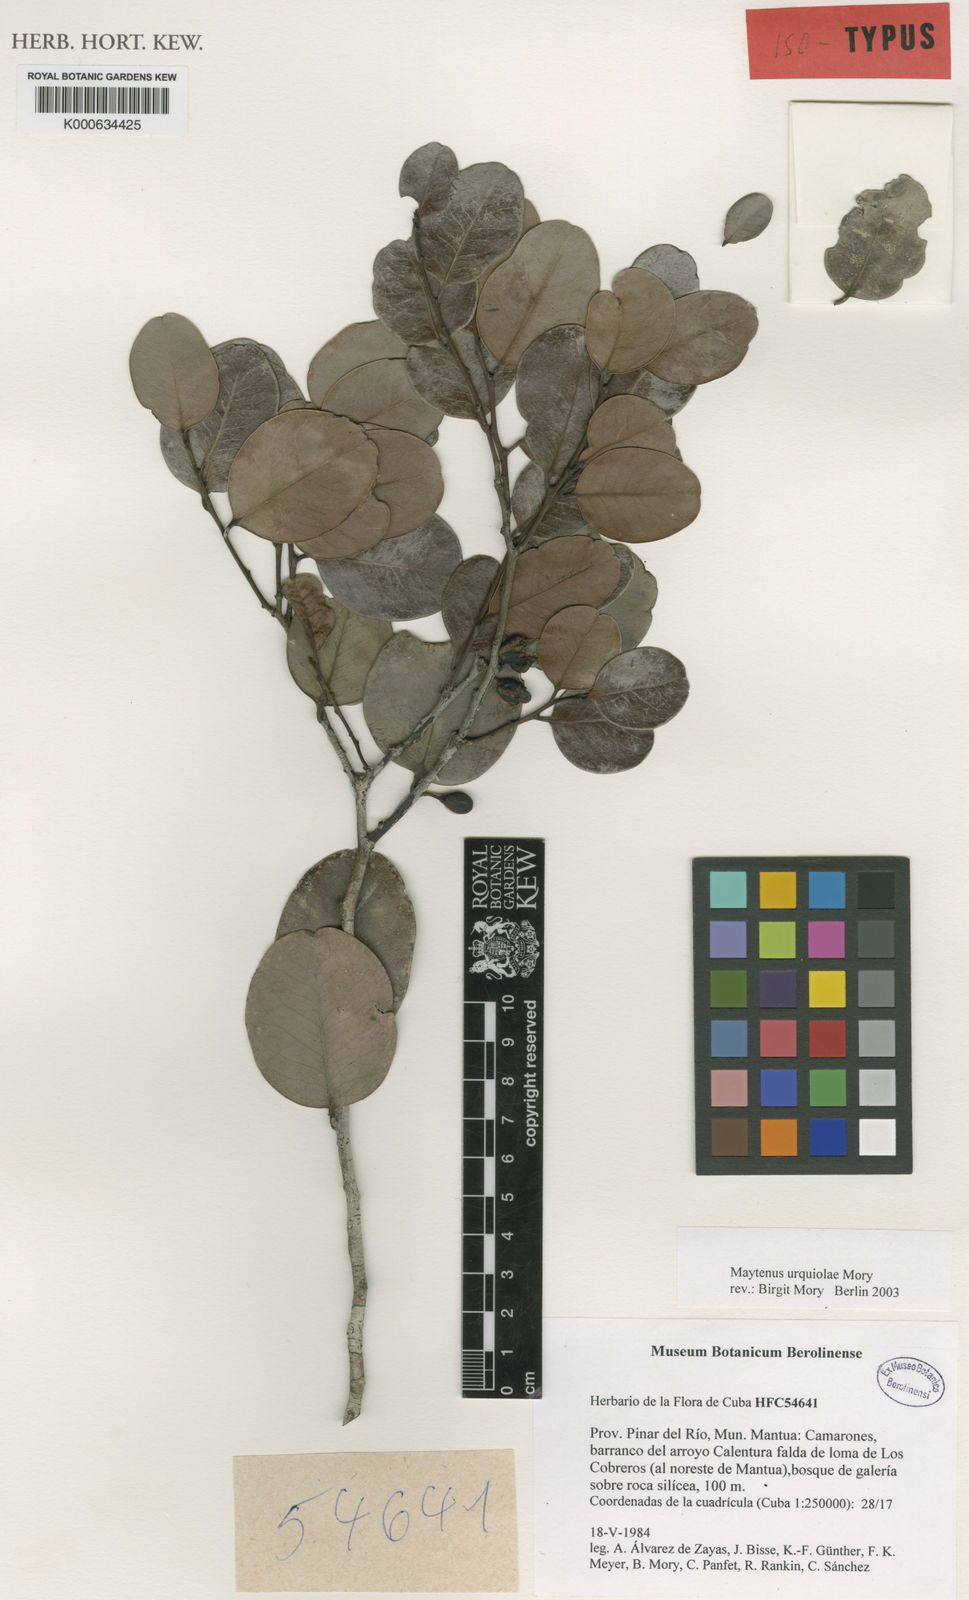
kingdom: Plantae
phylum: Tracheophyta
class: Magnoliopsida
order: Celastrales
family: Celastraceae
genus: Monteverdia
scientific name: Monteverdia urquiolae
